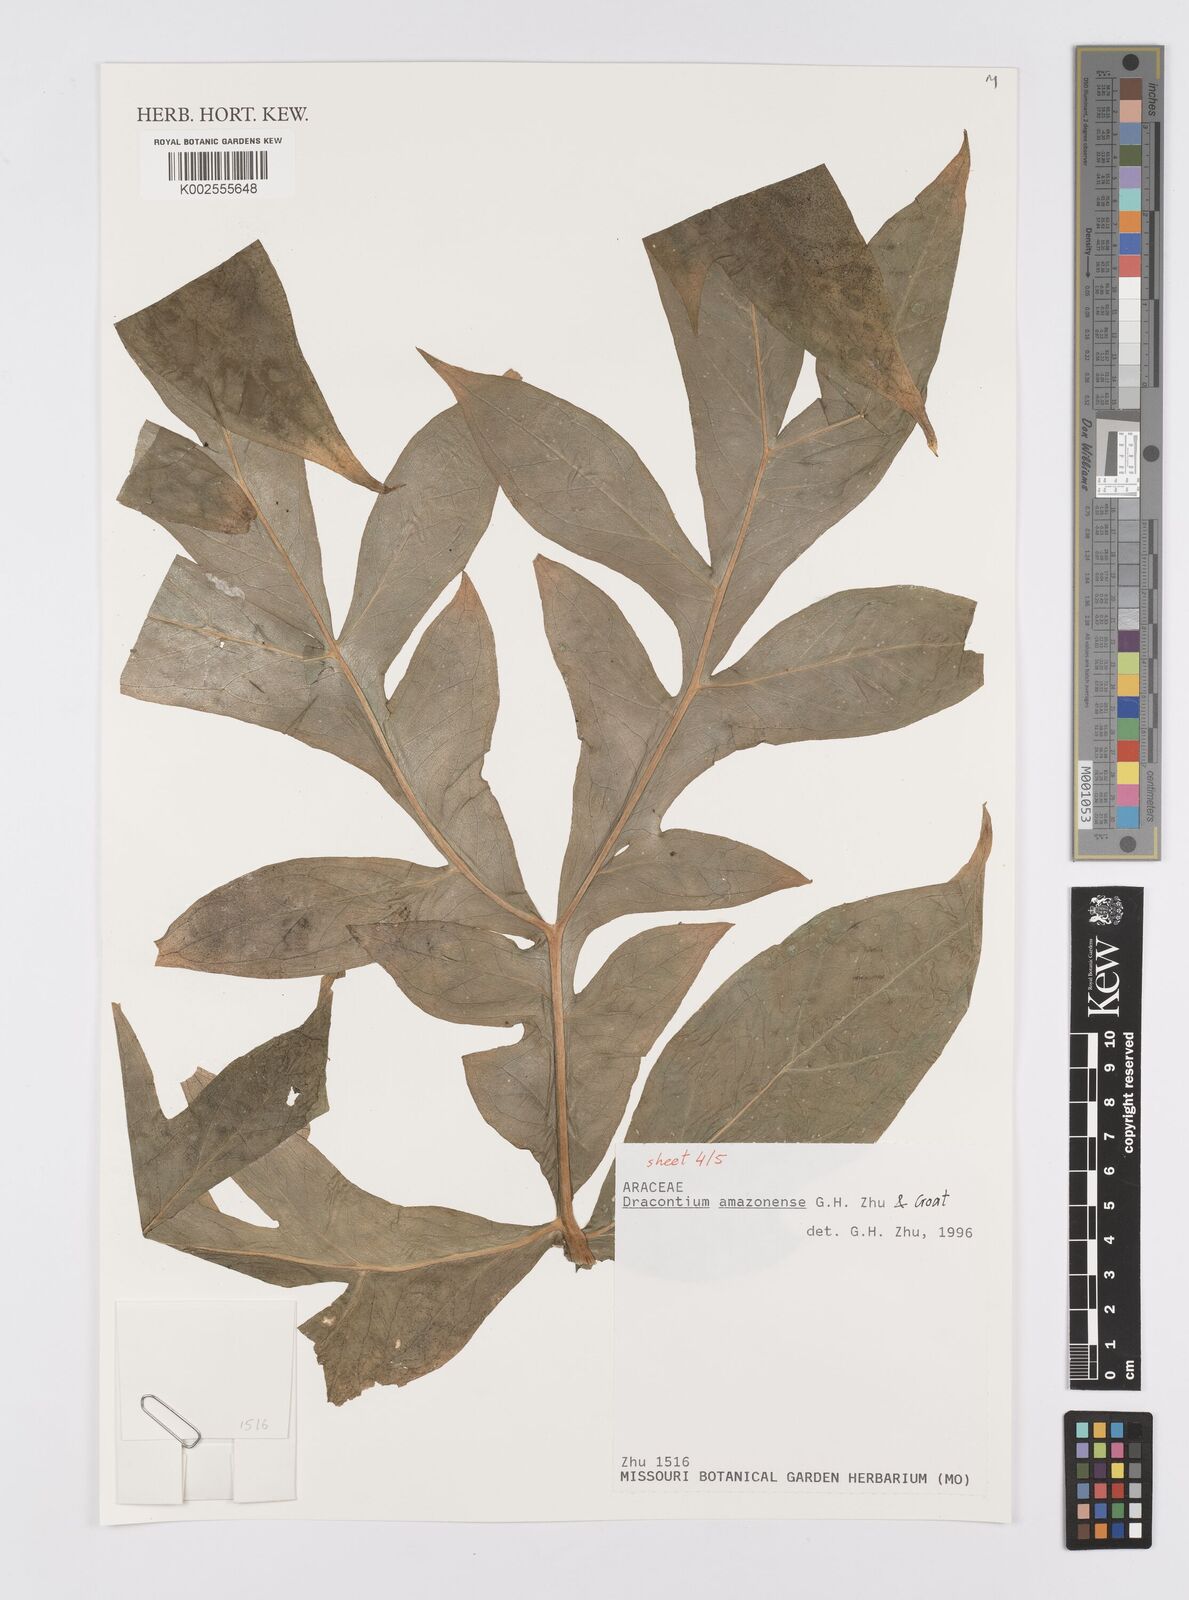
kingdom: Plantae
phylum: Tracheophyta
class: Liliopsida
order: Alismatales
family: Araceae
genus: Dracontium
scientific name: Dracontium amazonense
